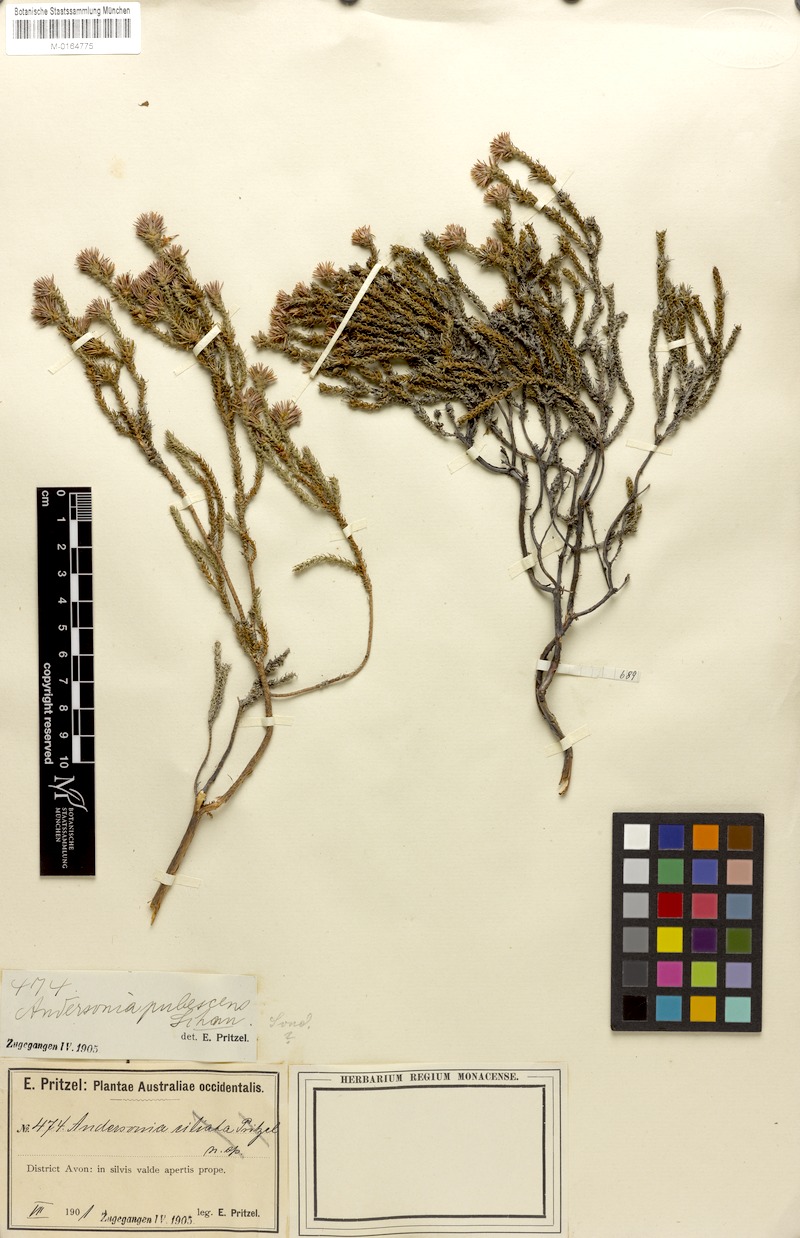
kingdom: Plantae
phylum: Tracheophyta
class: Magnoliopsida
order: Ericales
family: Ericaceae
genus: Andersonia
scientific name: Andersonia lehmanniana
